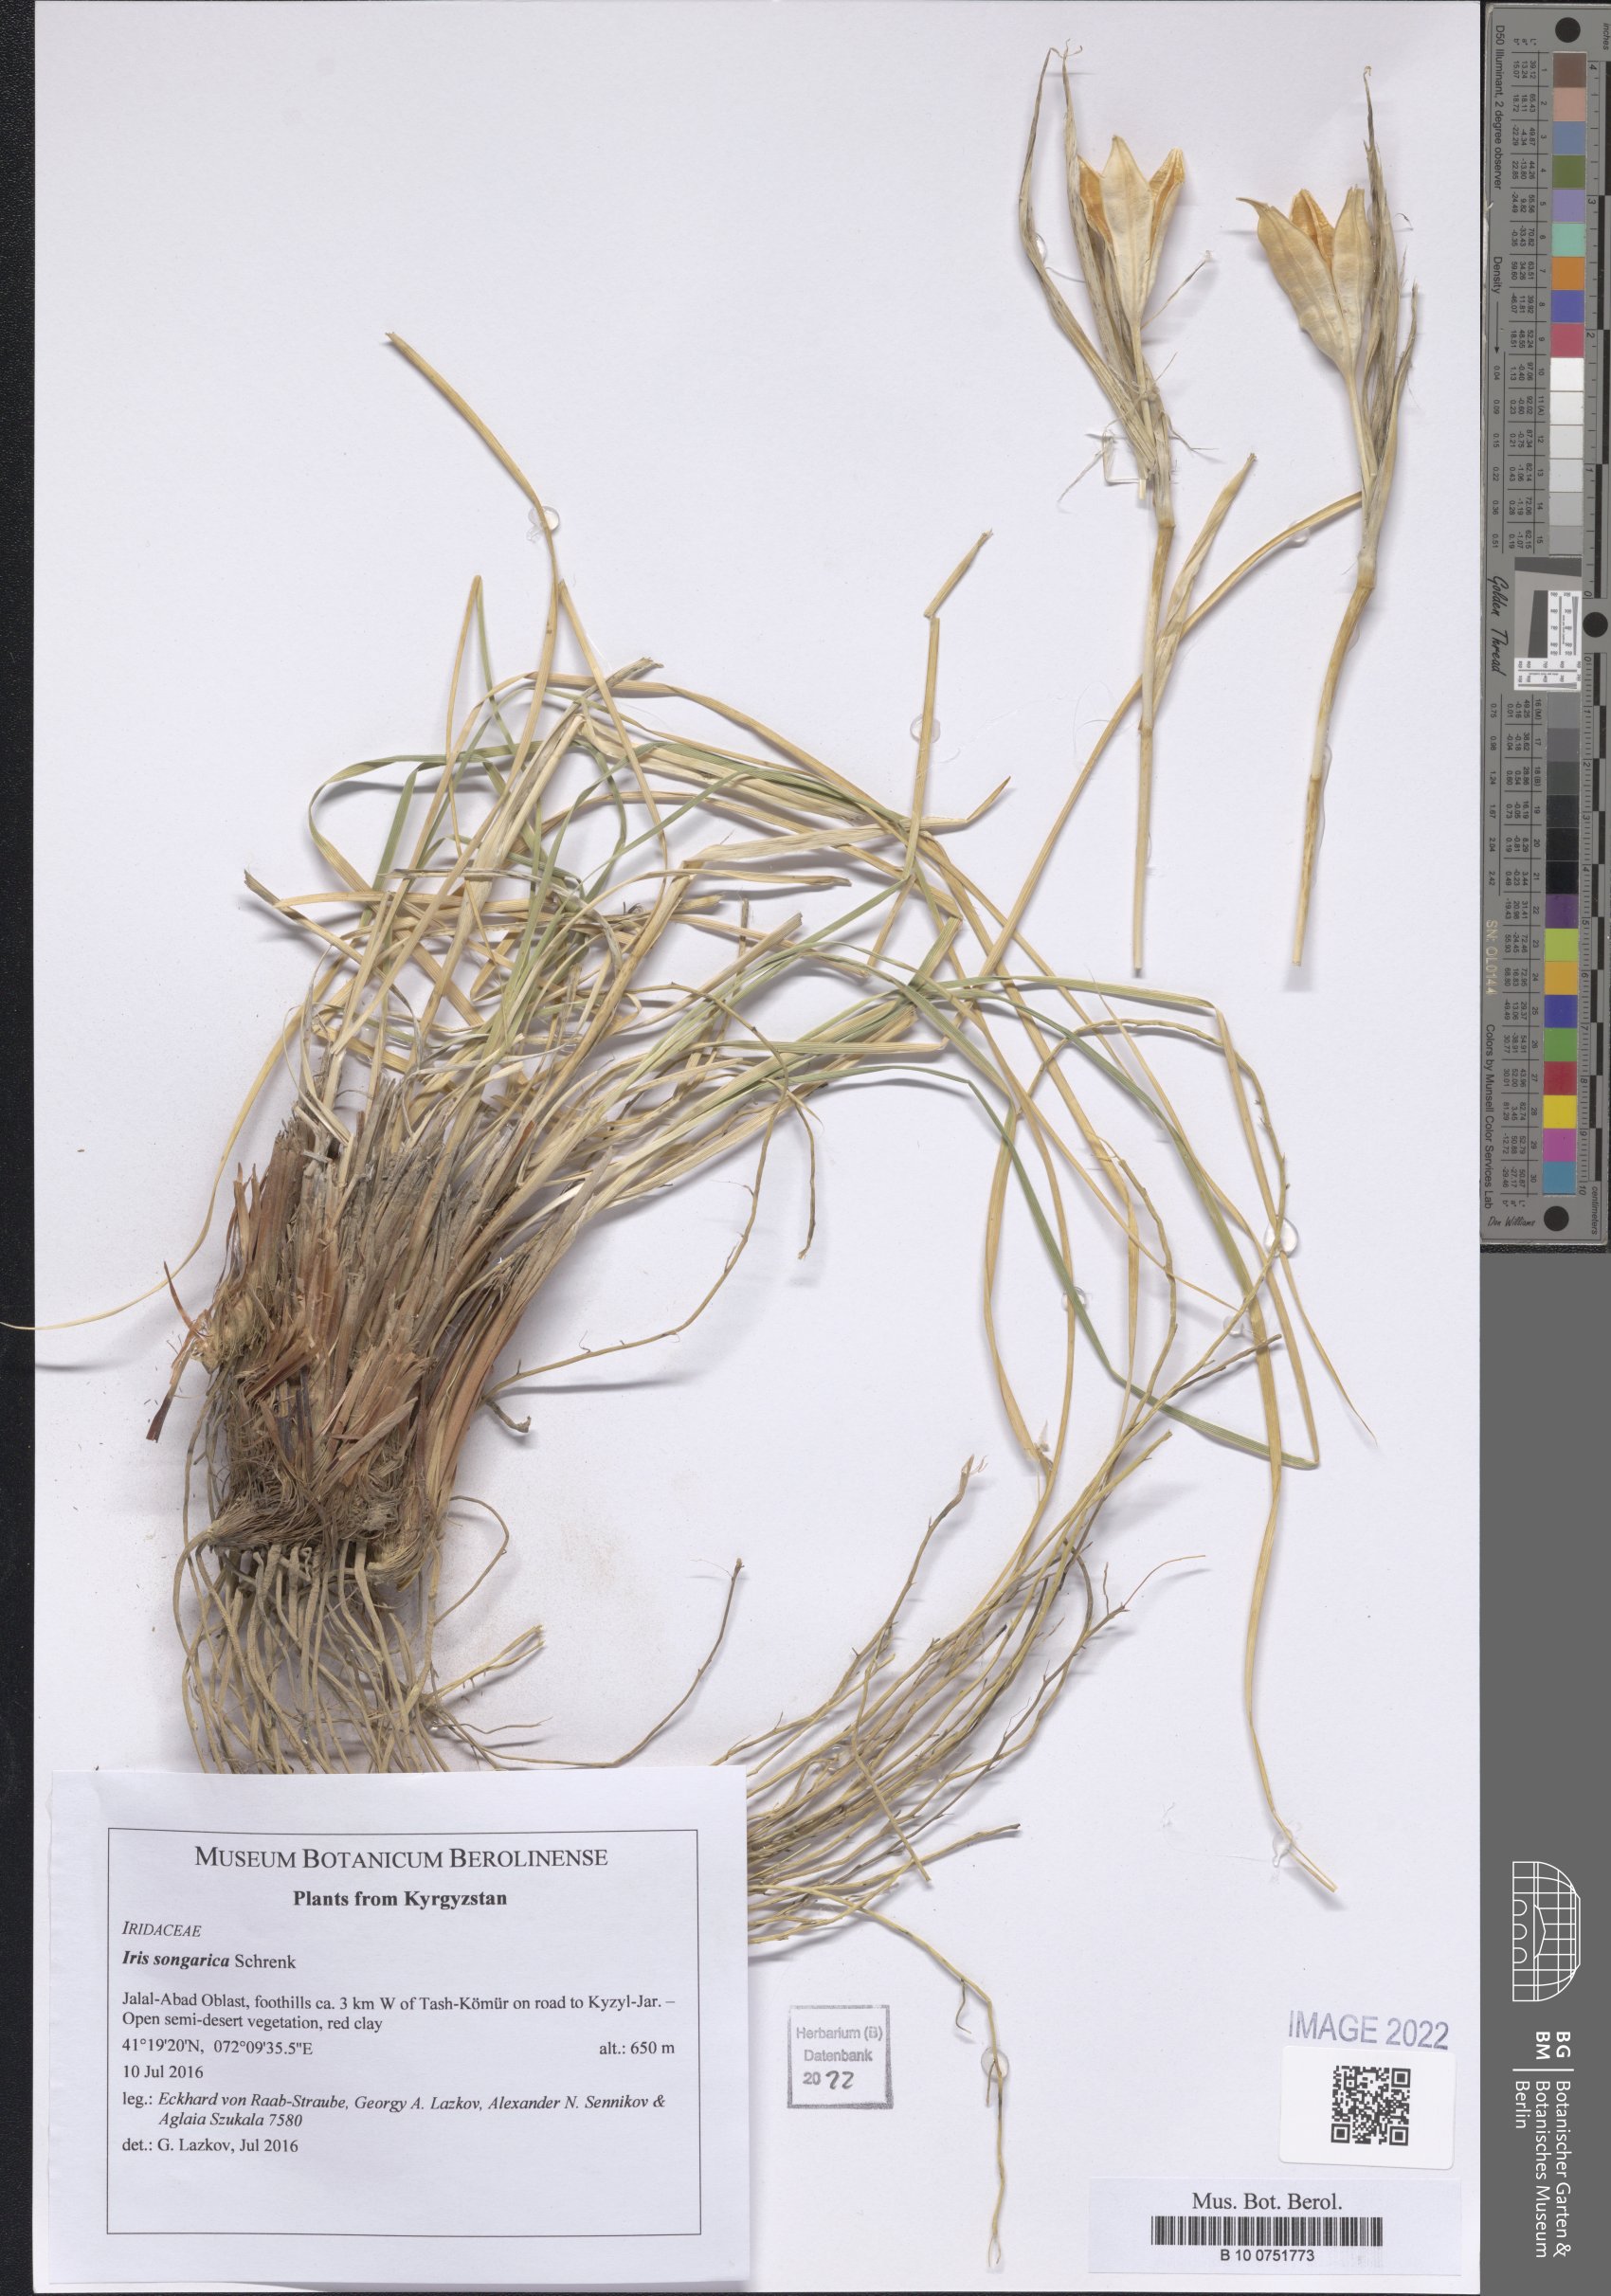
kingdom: Plantae
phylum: Tracheophyta
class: Liliopsida
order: Asparagales
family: Iridaceae
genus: Iris
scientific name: Iris songarica
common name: Songar iris
